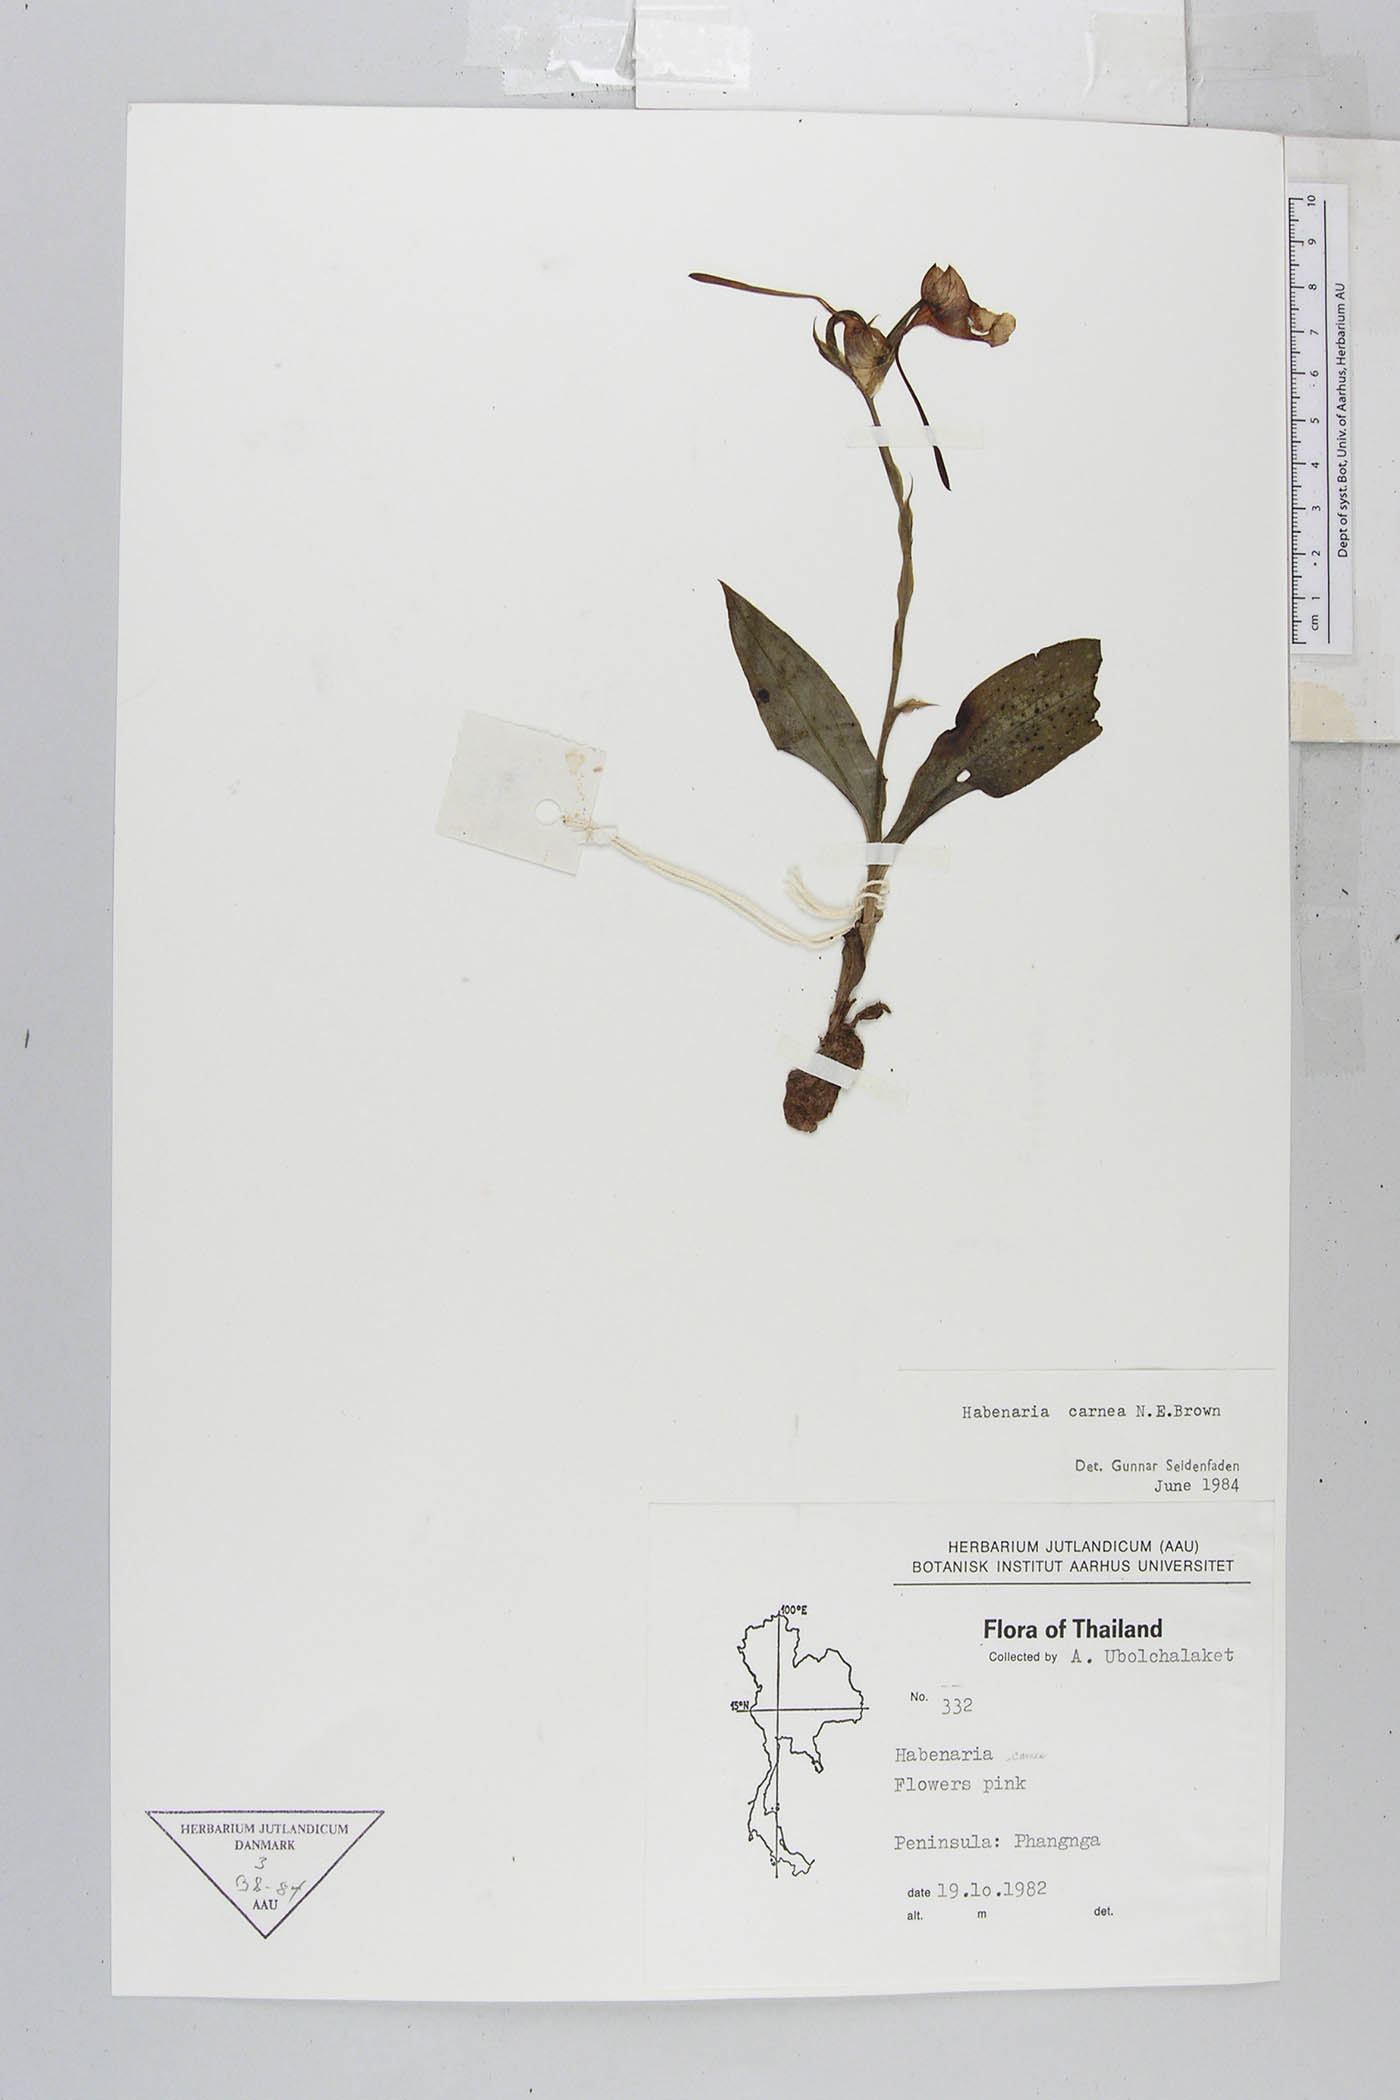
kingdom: Plantae
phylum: Tracheophyta
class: Liliopsida
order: Asparagales
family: Orchidaceae
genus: Habenaria
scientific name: Habenaria carnea
